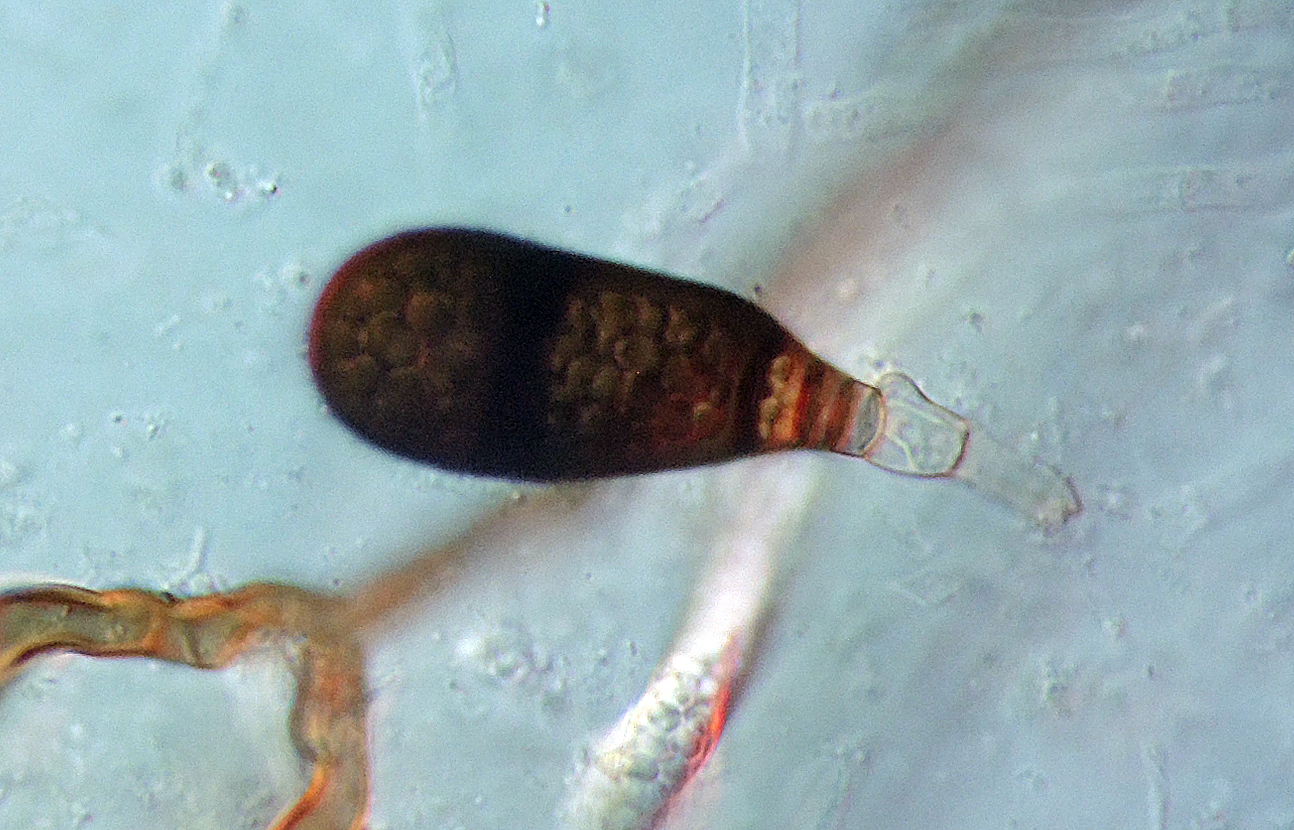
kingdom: Fungi
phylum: Ascomycota
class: Dothideomycetes
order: Pleosporales
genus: Bactrodesmium
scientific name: Bactrodesmium obovatum
